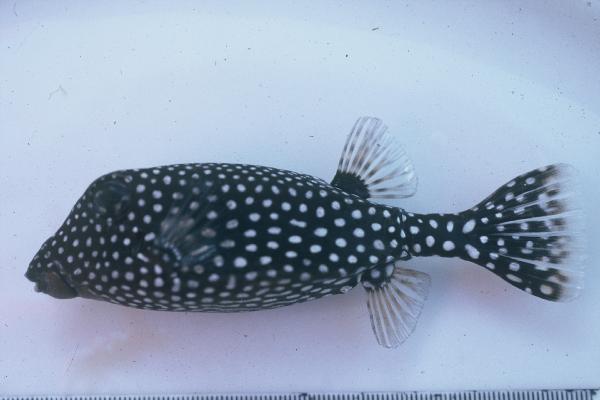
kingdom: Animalia
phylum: Chordata
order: Tetraodontiformes
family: Ostraciidae
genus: Ostracion
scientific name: Ostracion meleagris
